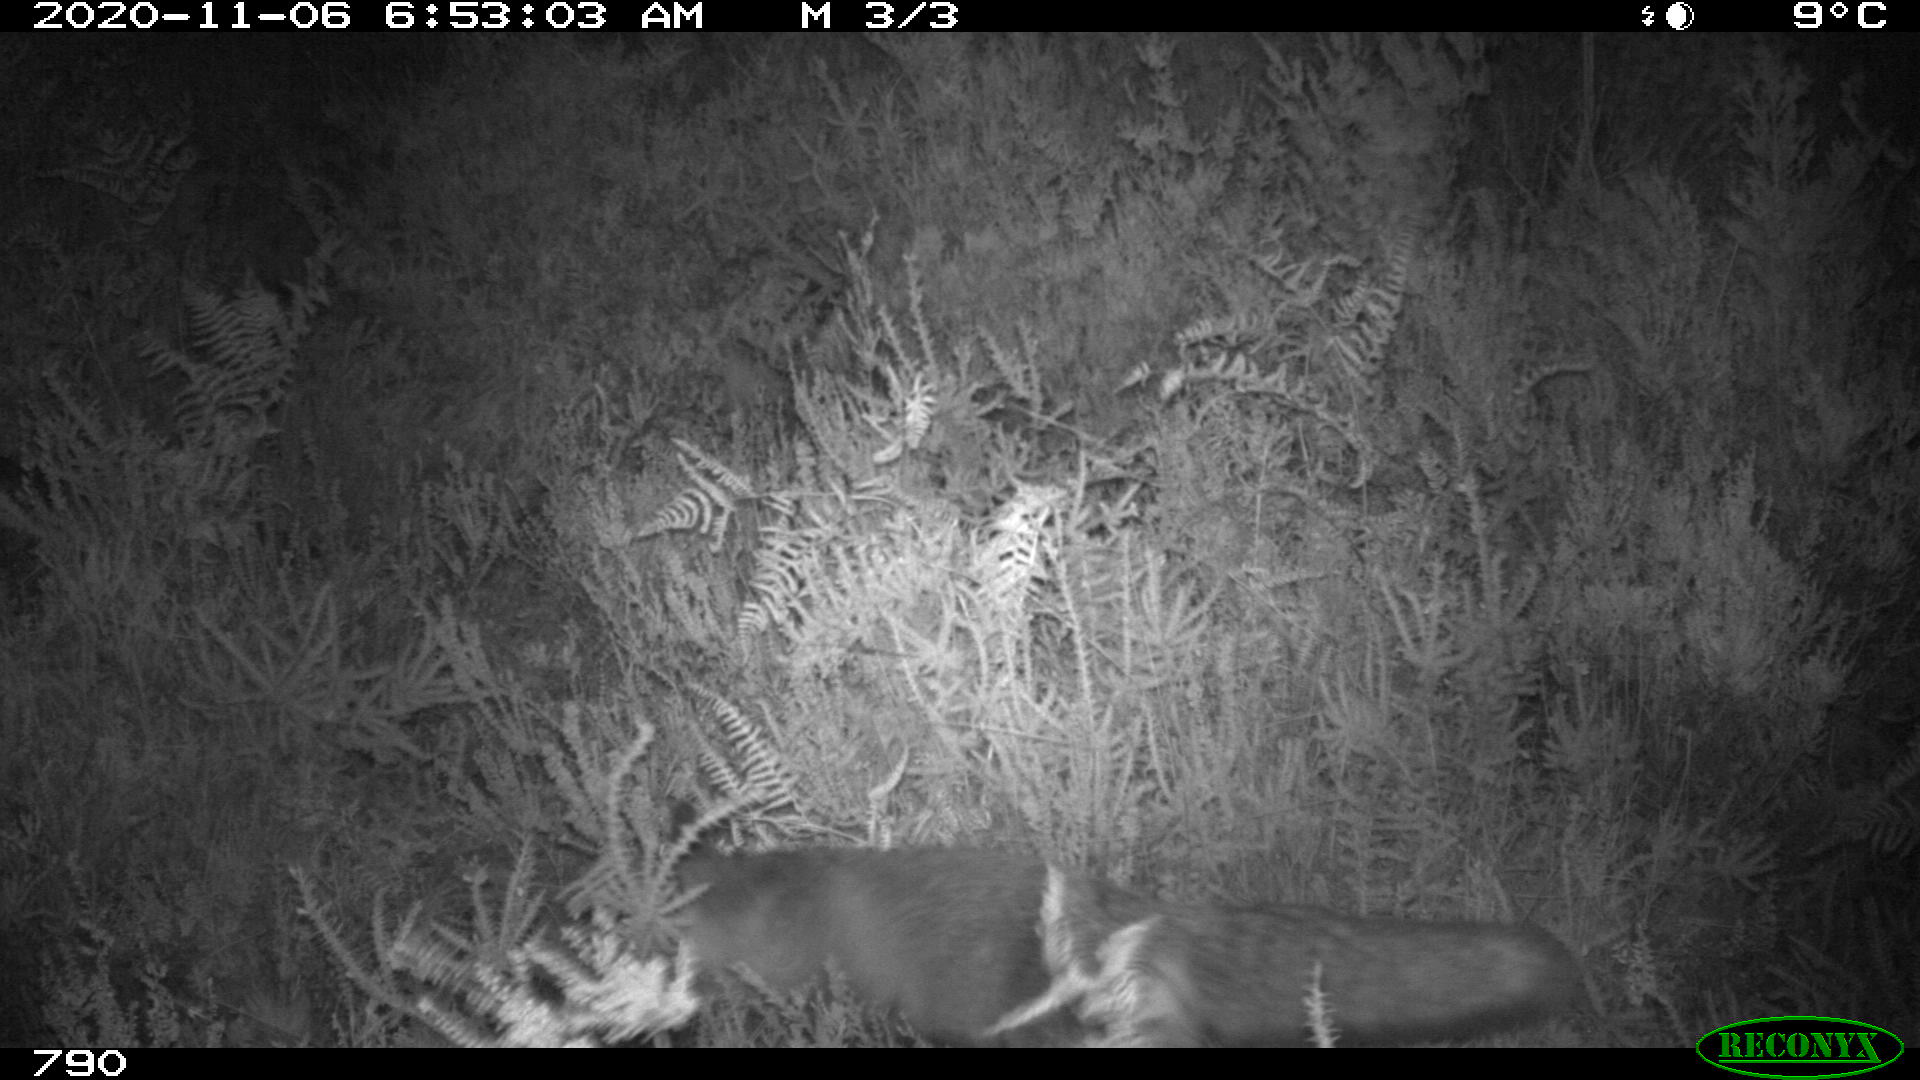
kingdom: Animalia
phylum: Chordata
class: Mammalia
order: Carnivora
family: Canidae
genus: Vulpes
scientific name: Vulpes vulpes
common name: Red fox
